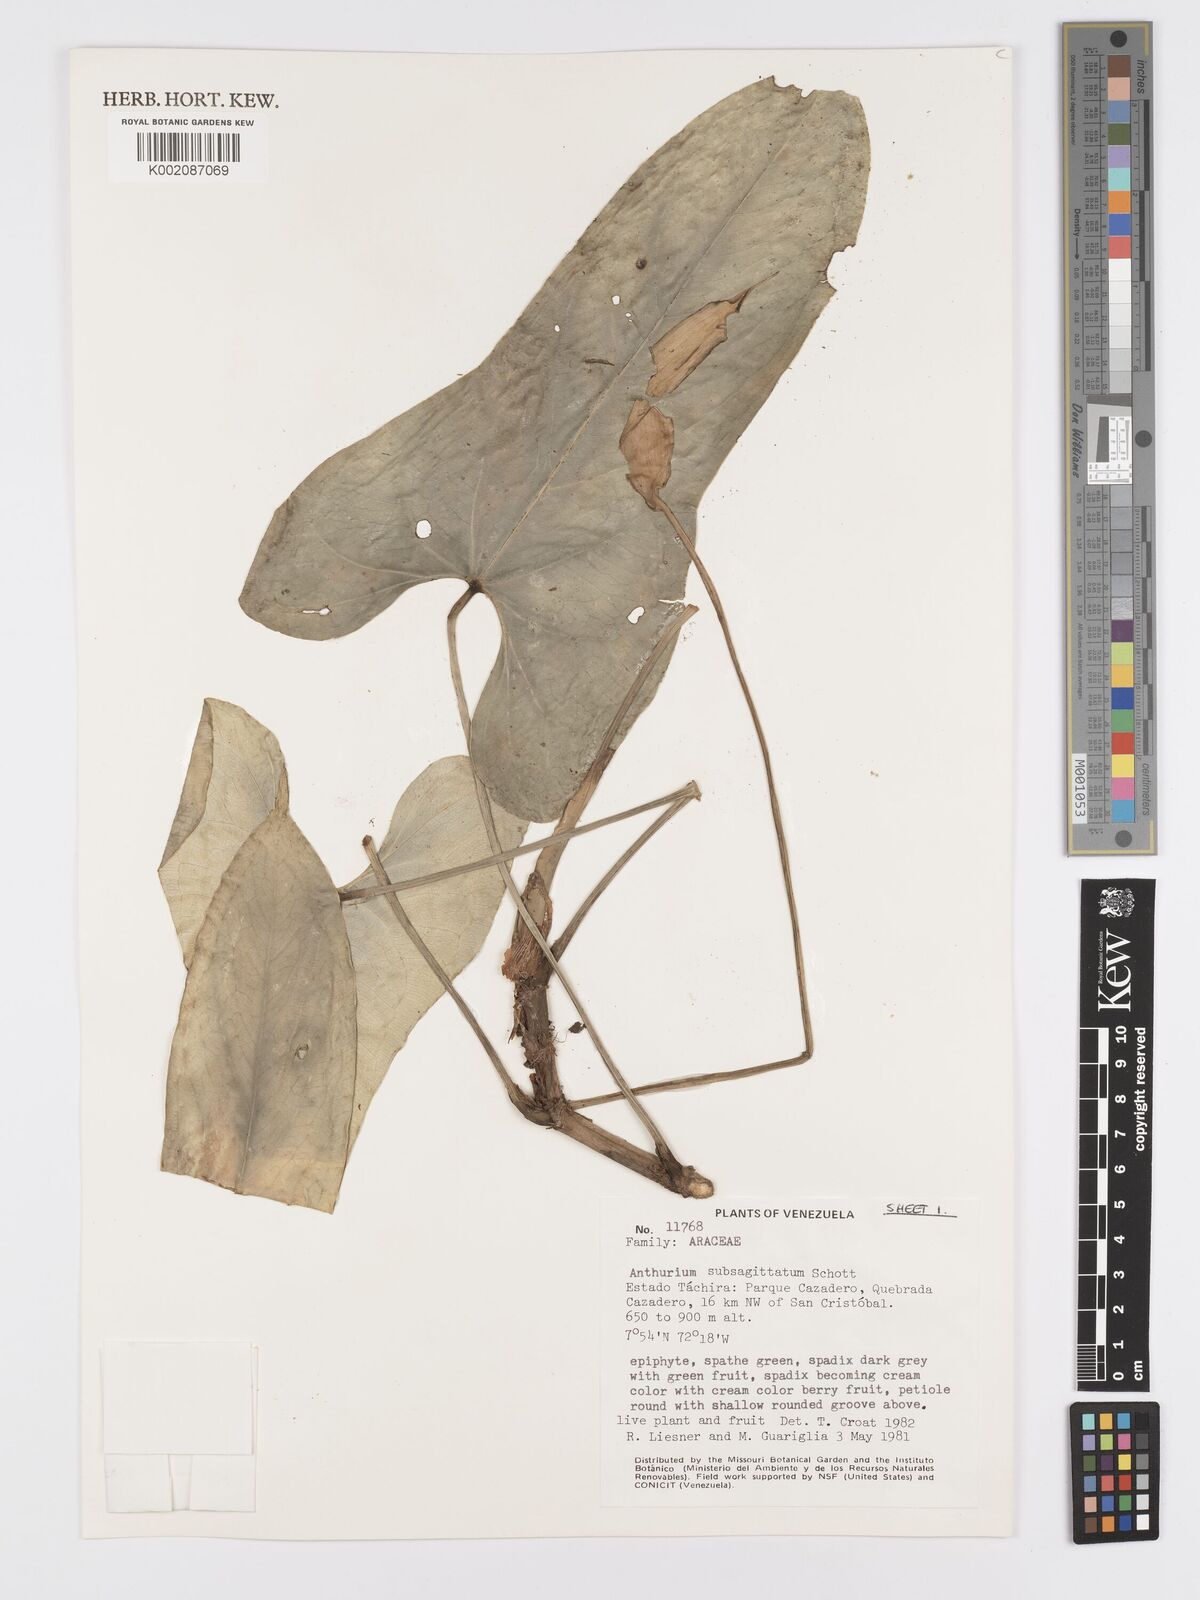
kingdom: Plantae
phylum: Tracheophyta
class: Liliopsida
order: Alismatales
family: Araceae
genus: Anthurium
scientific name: Anthurium subsagittatum
